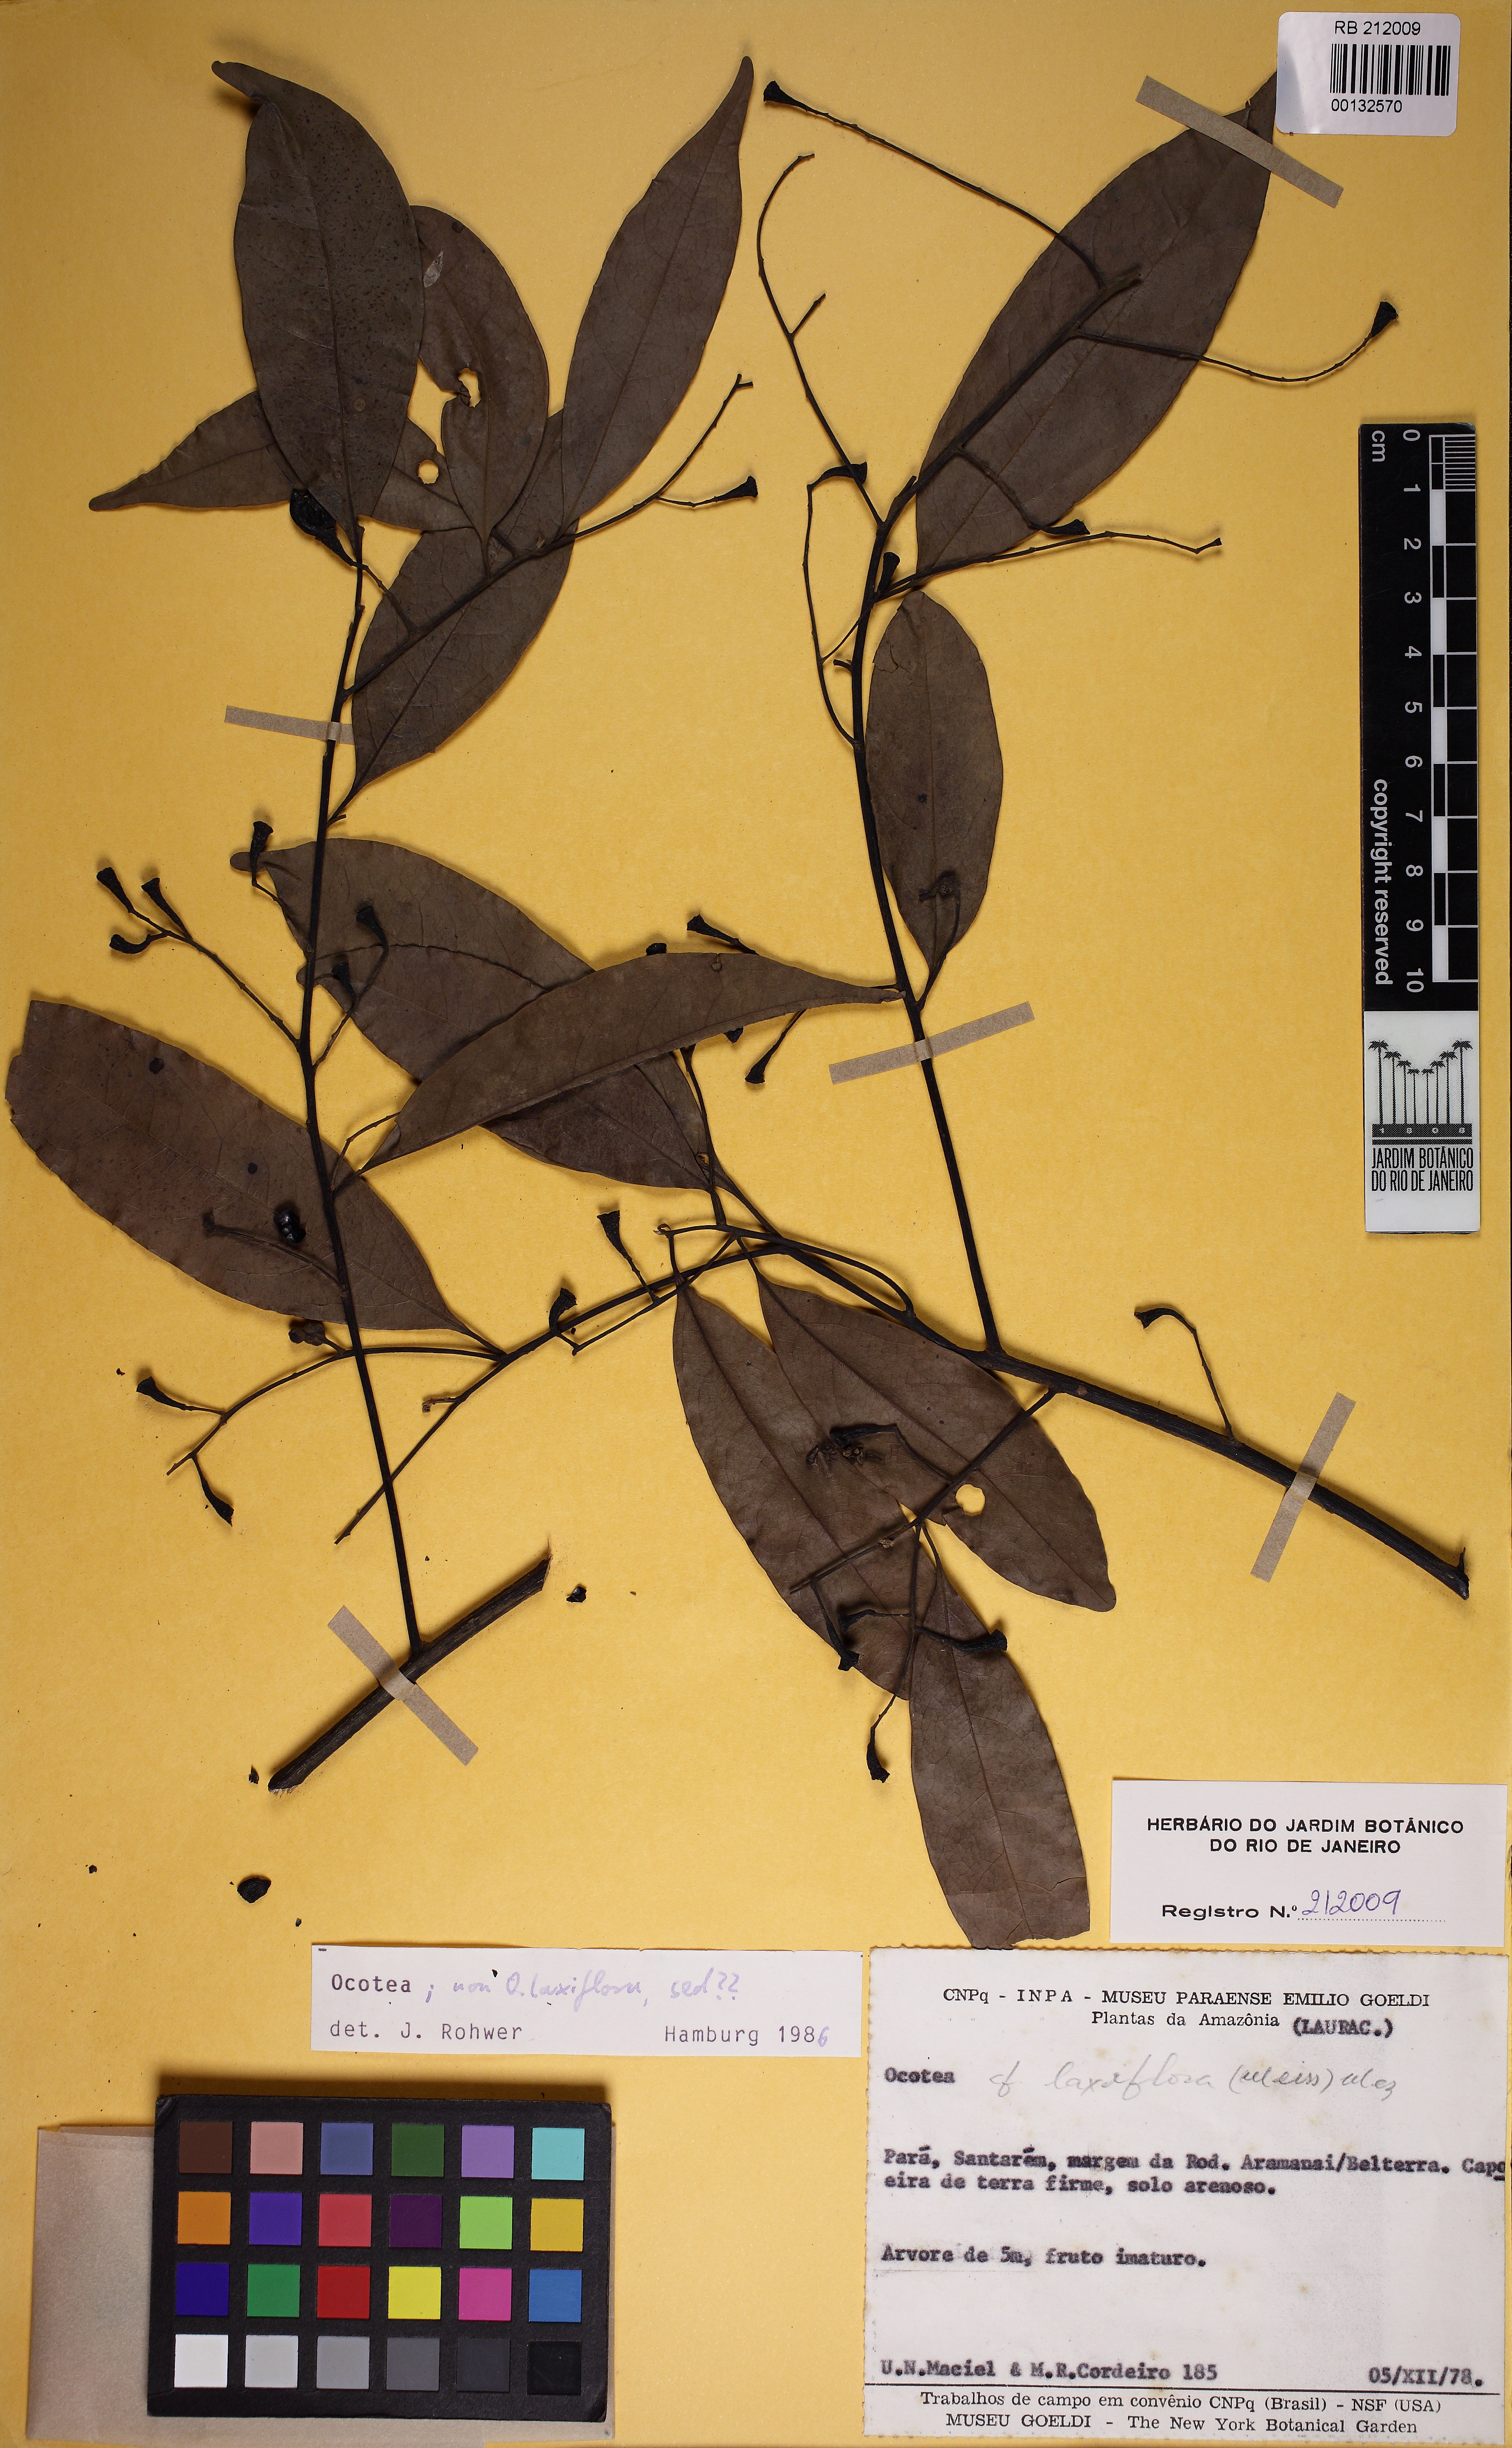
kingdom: Plantae
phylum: Tracheophyta
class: Magnoliopsida
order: Laurales
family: Lauraceae
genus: Ocotea
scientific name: Ocotea pauciflora
